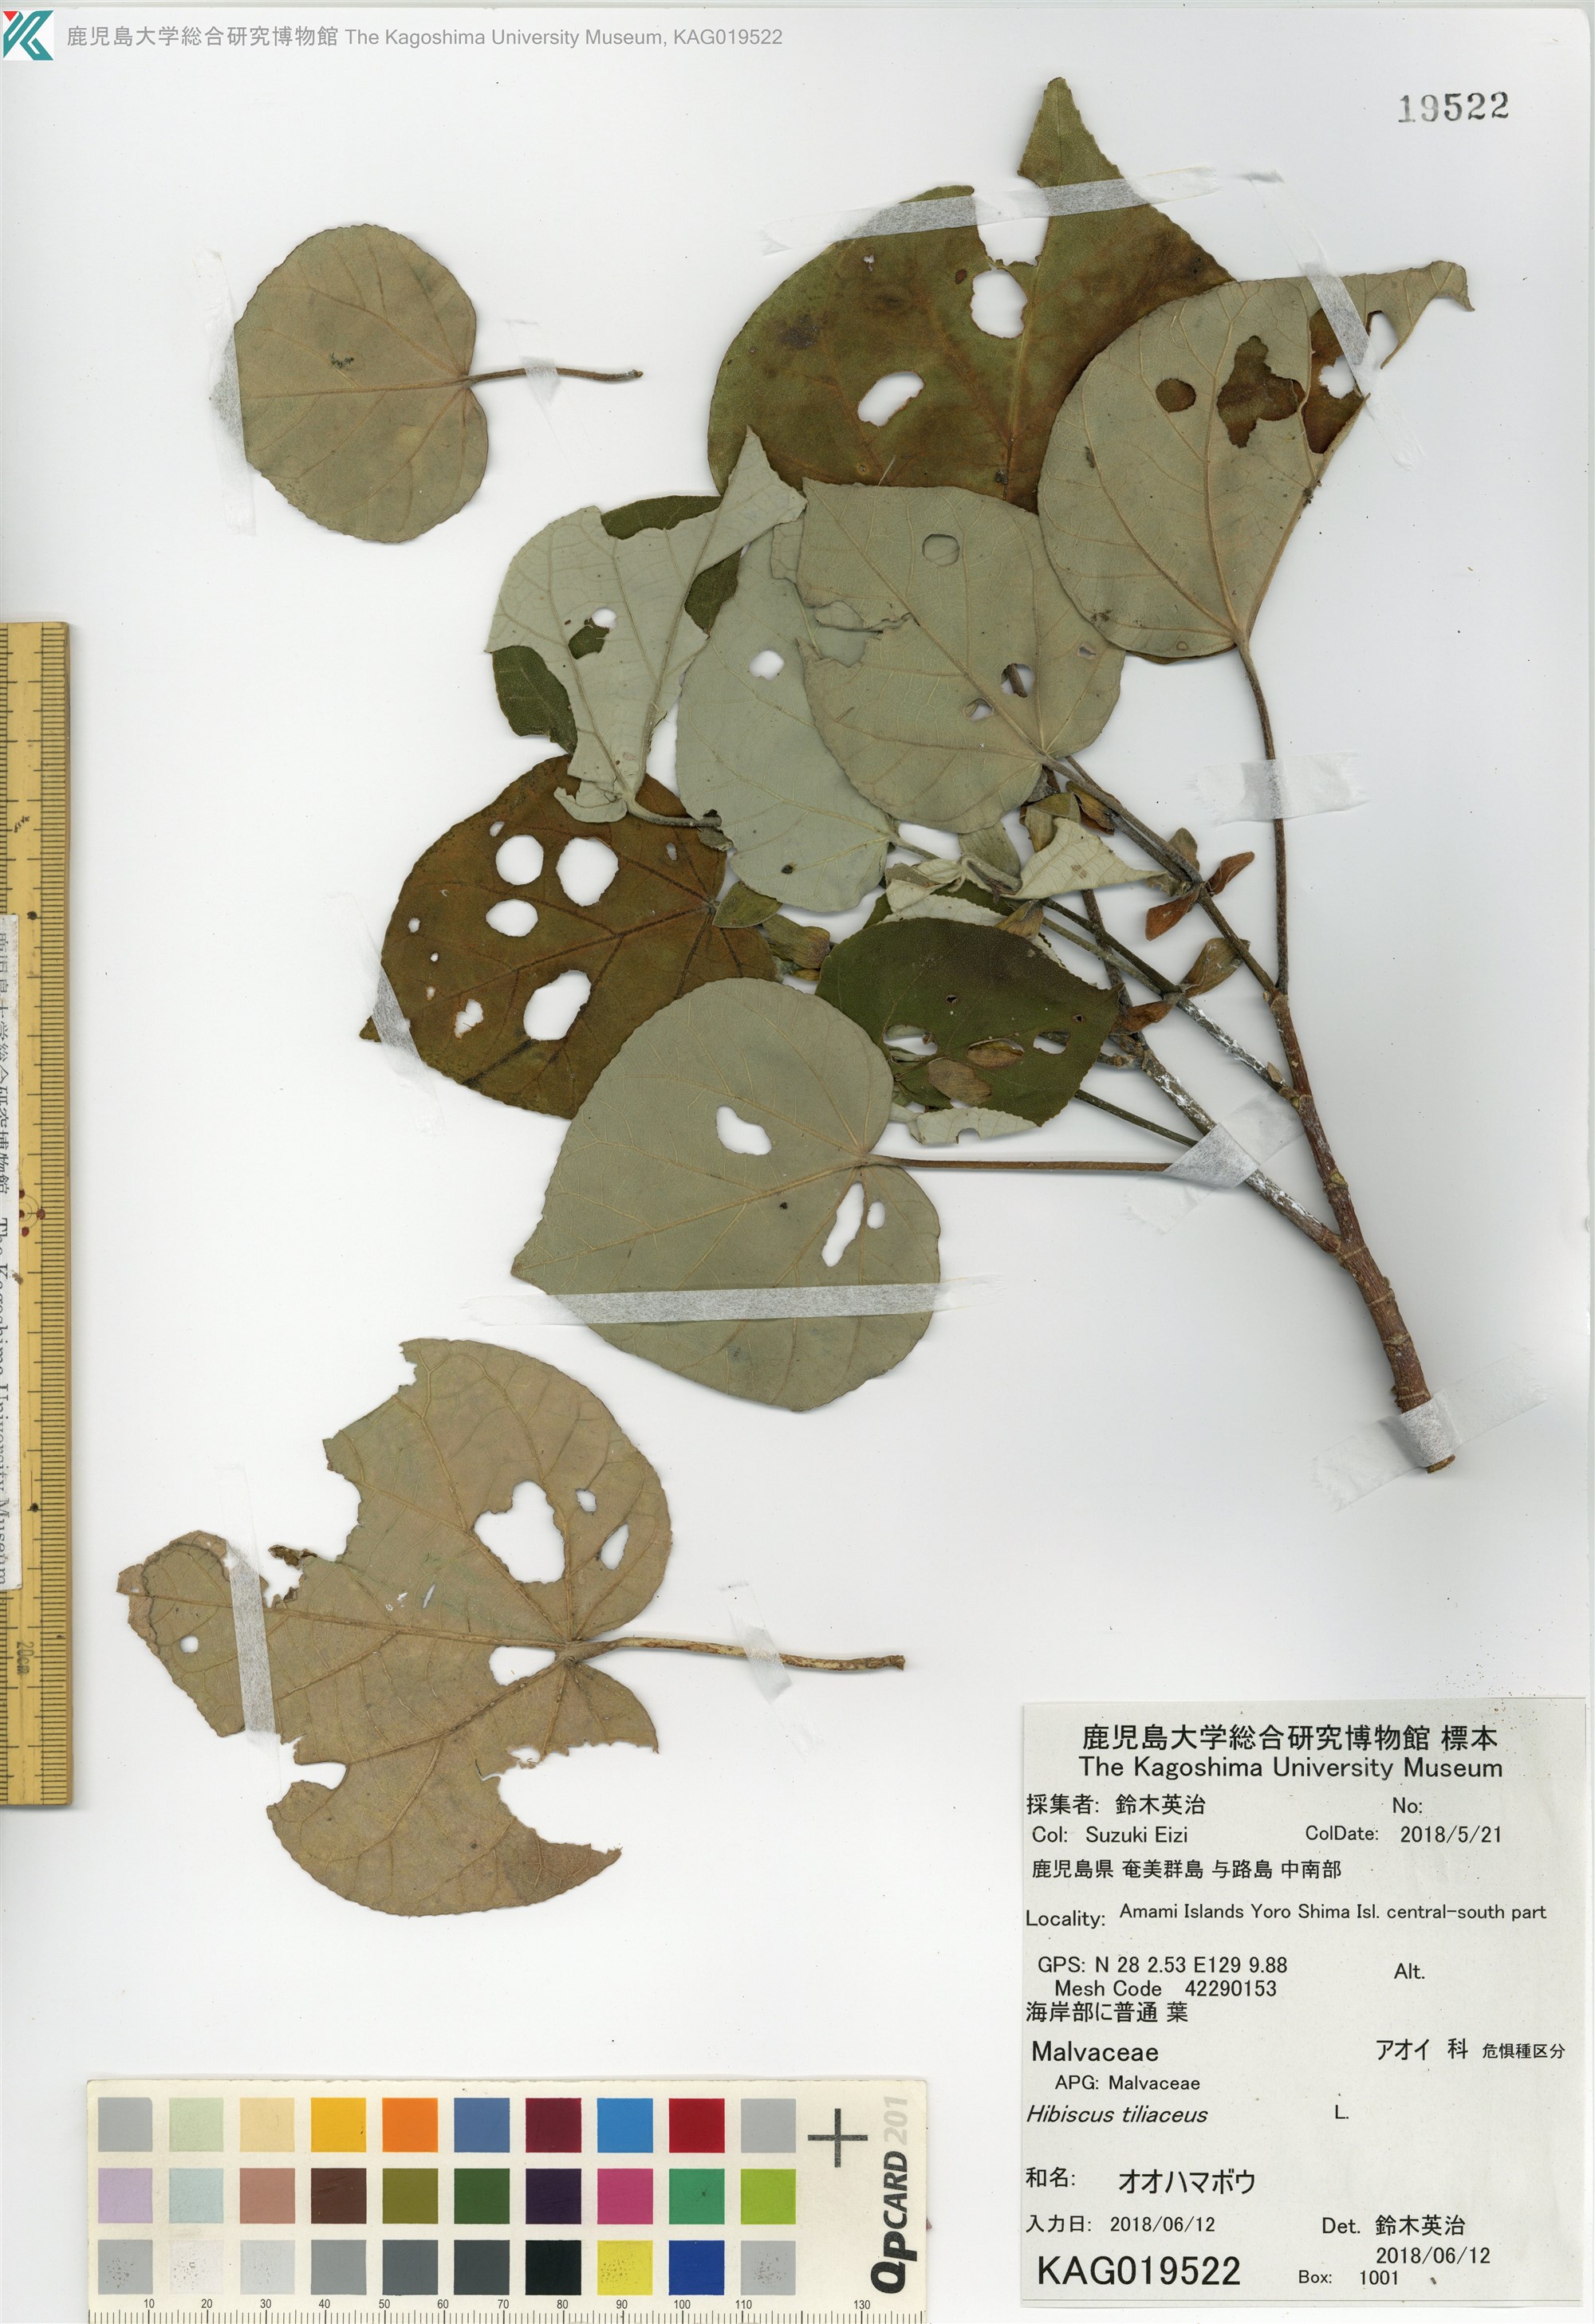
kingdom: Plantae
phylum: Tracheophyta
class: Magnoliopsida
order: Malvales
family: Malvaceae
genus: Talipariti
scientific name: Talipariti tiliaceum
